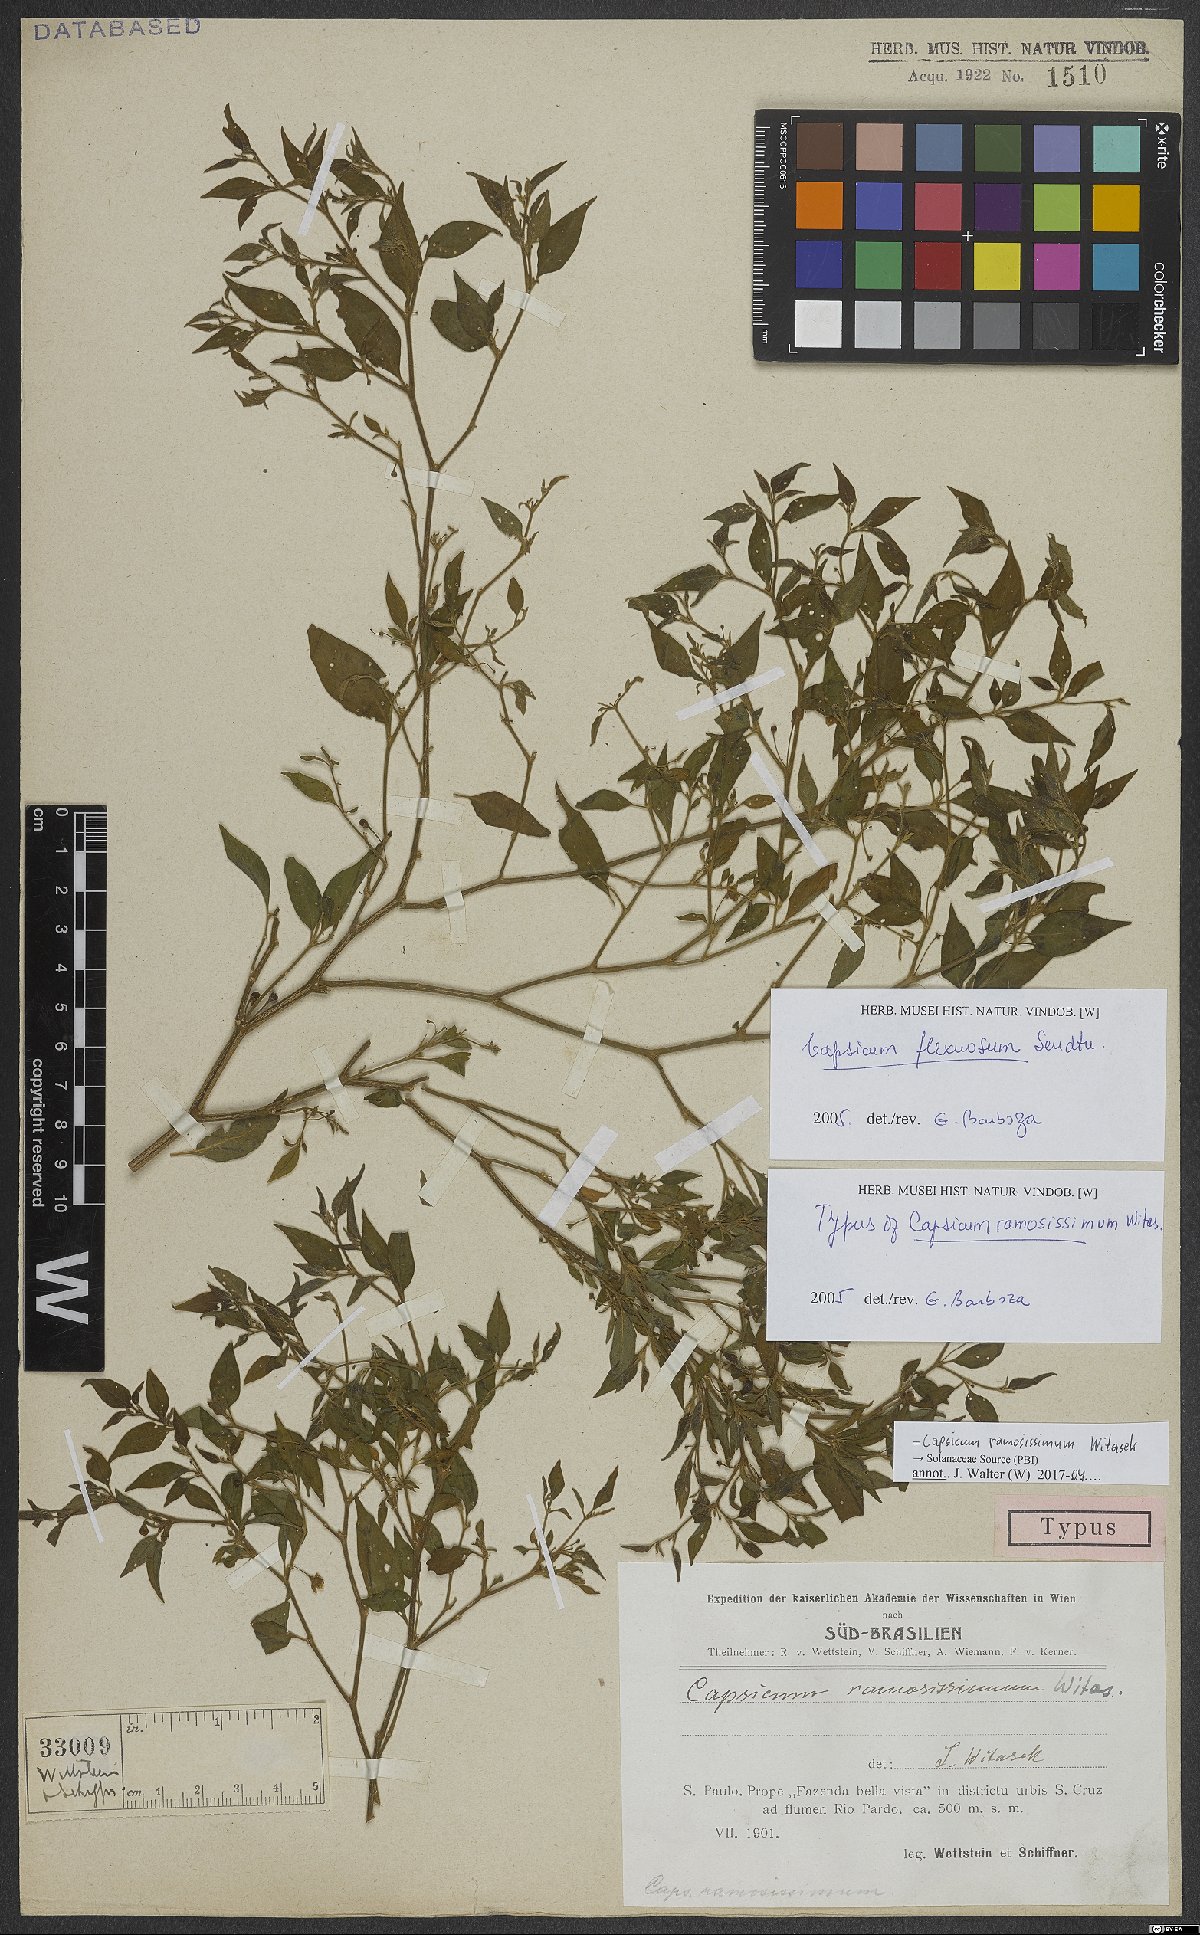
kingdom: Plantae
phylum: Tracheophyta
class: Magnoliopsida
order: Solanales
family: Solanaceae
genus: Capsicum
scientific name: Capsicum flexuosum
